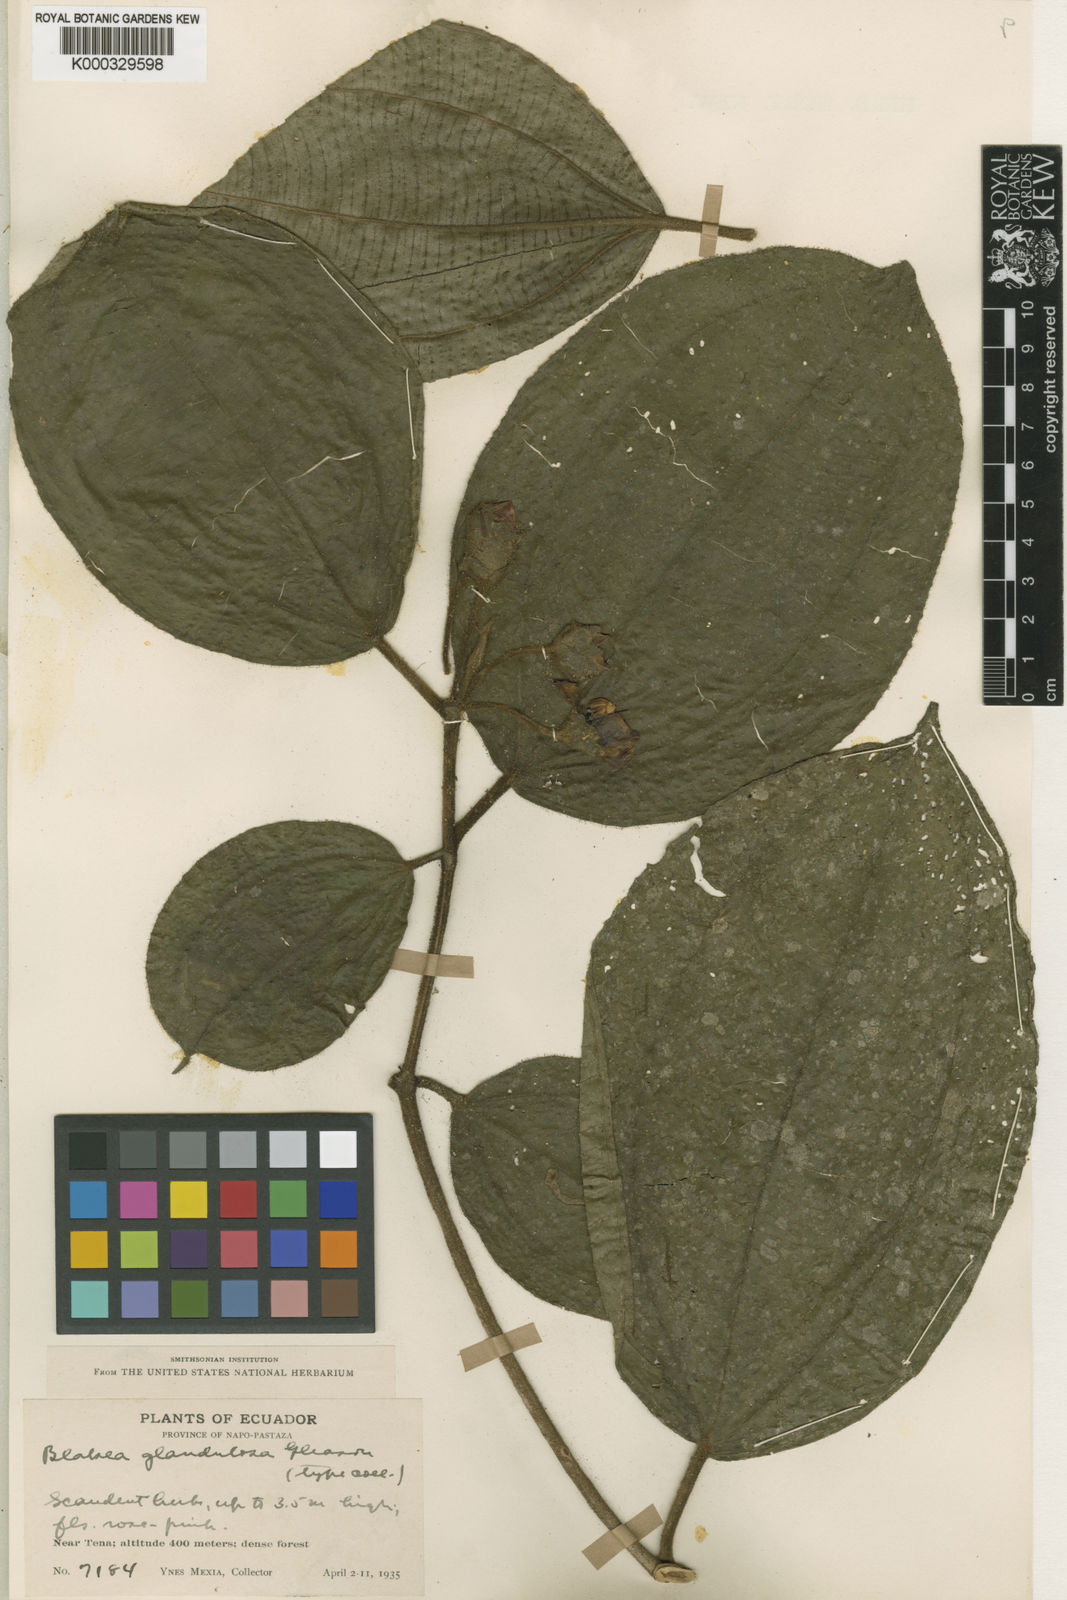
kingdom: Plantae
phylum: Tracheophyta
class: Magnoliopsida
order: Myrtales
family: Melastomataceae
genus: Blakea
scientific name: Blakea glandulosa
